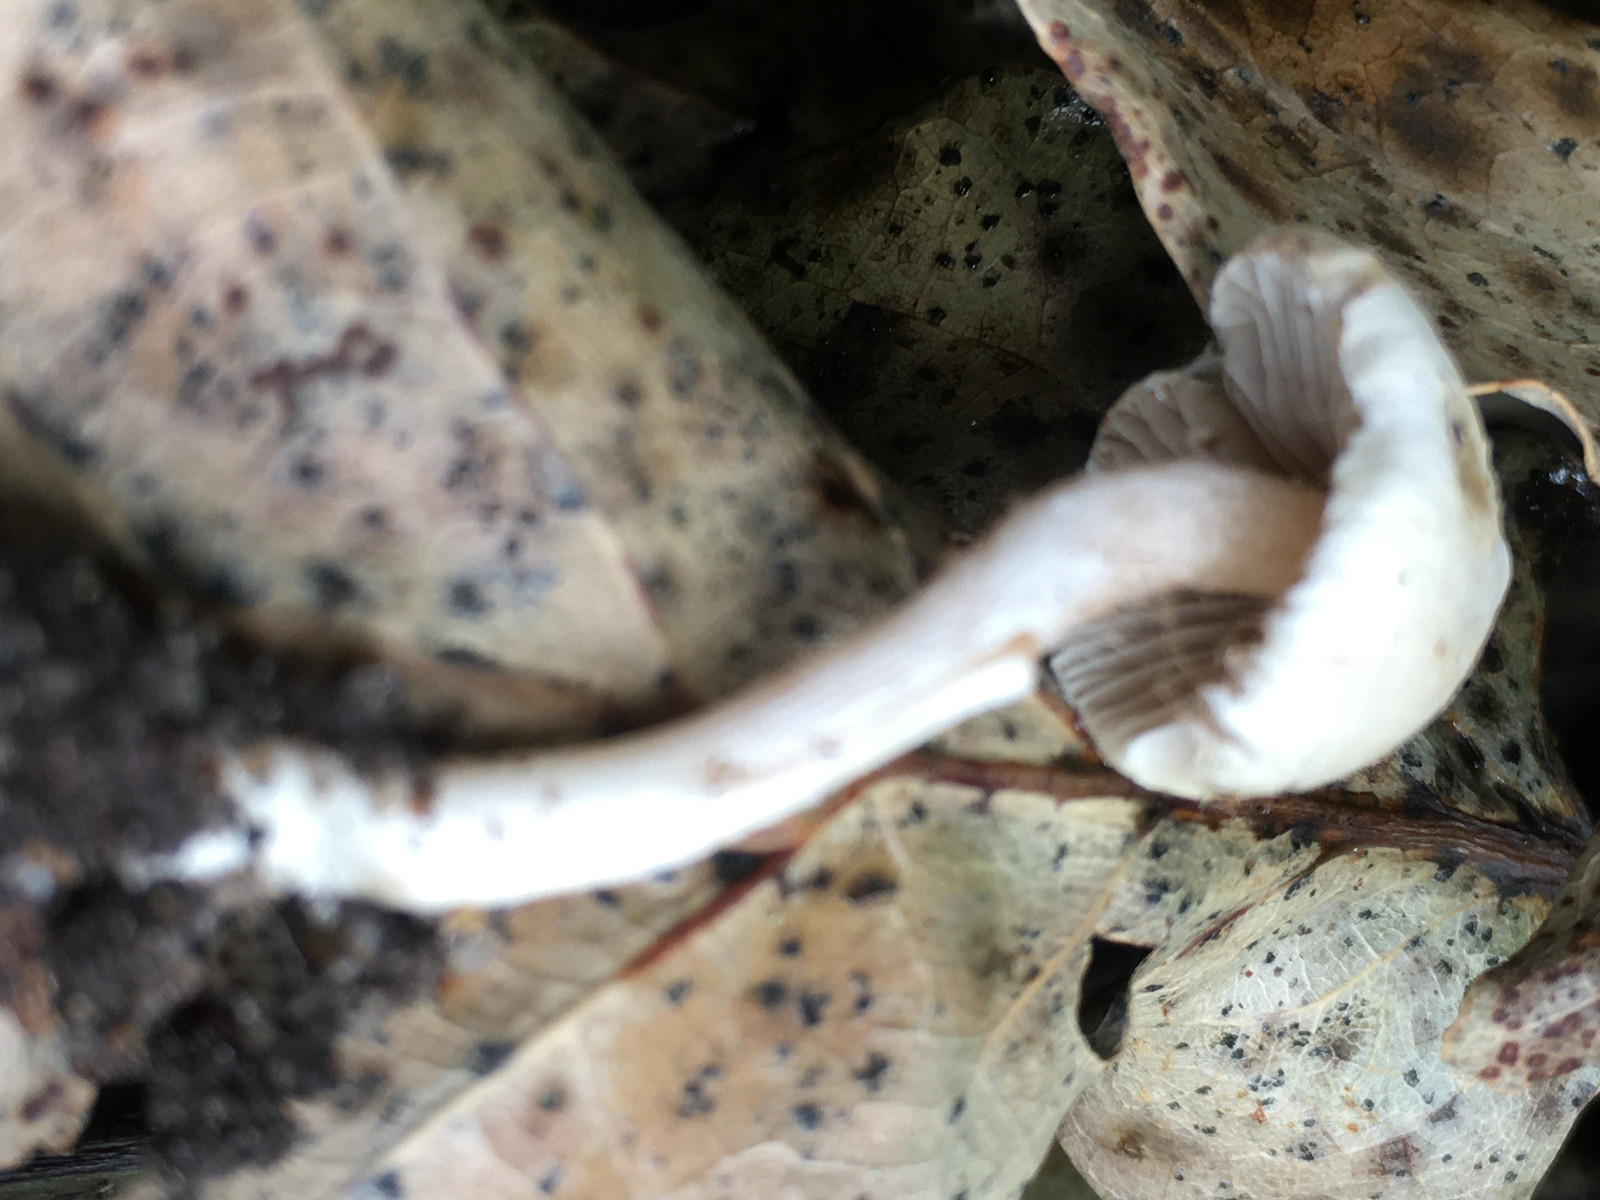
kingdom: Fungi
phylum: Basidiomycota
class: Agaricomycetes
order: Agaricales
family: Inocybaceae
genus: Inocybe
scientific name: Inocybe
